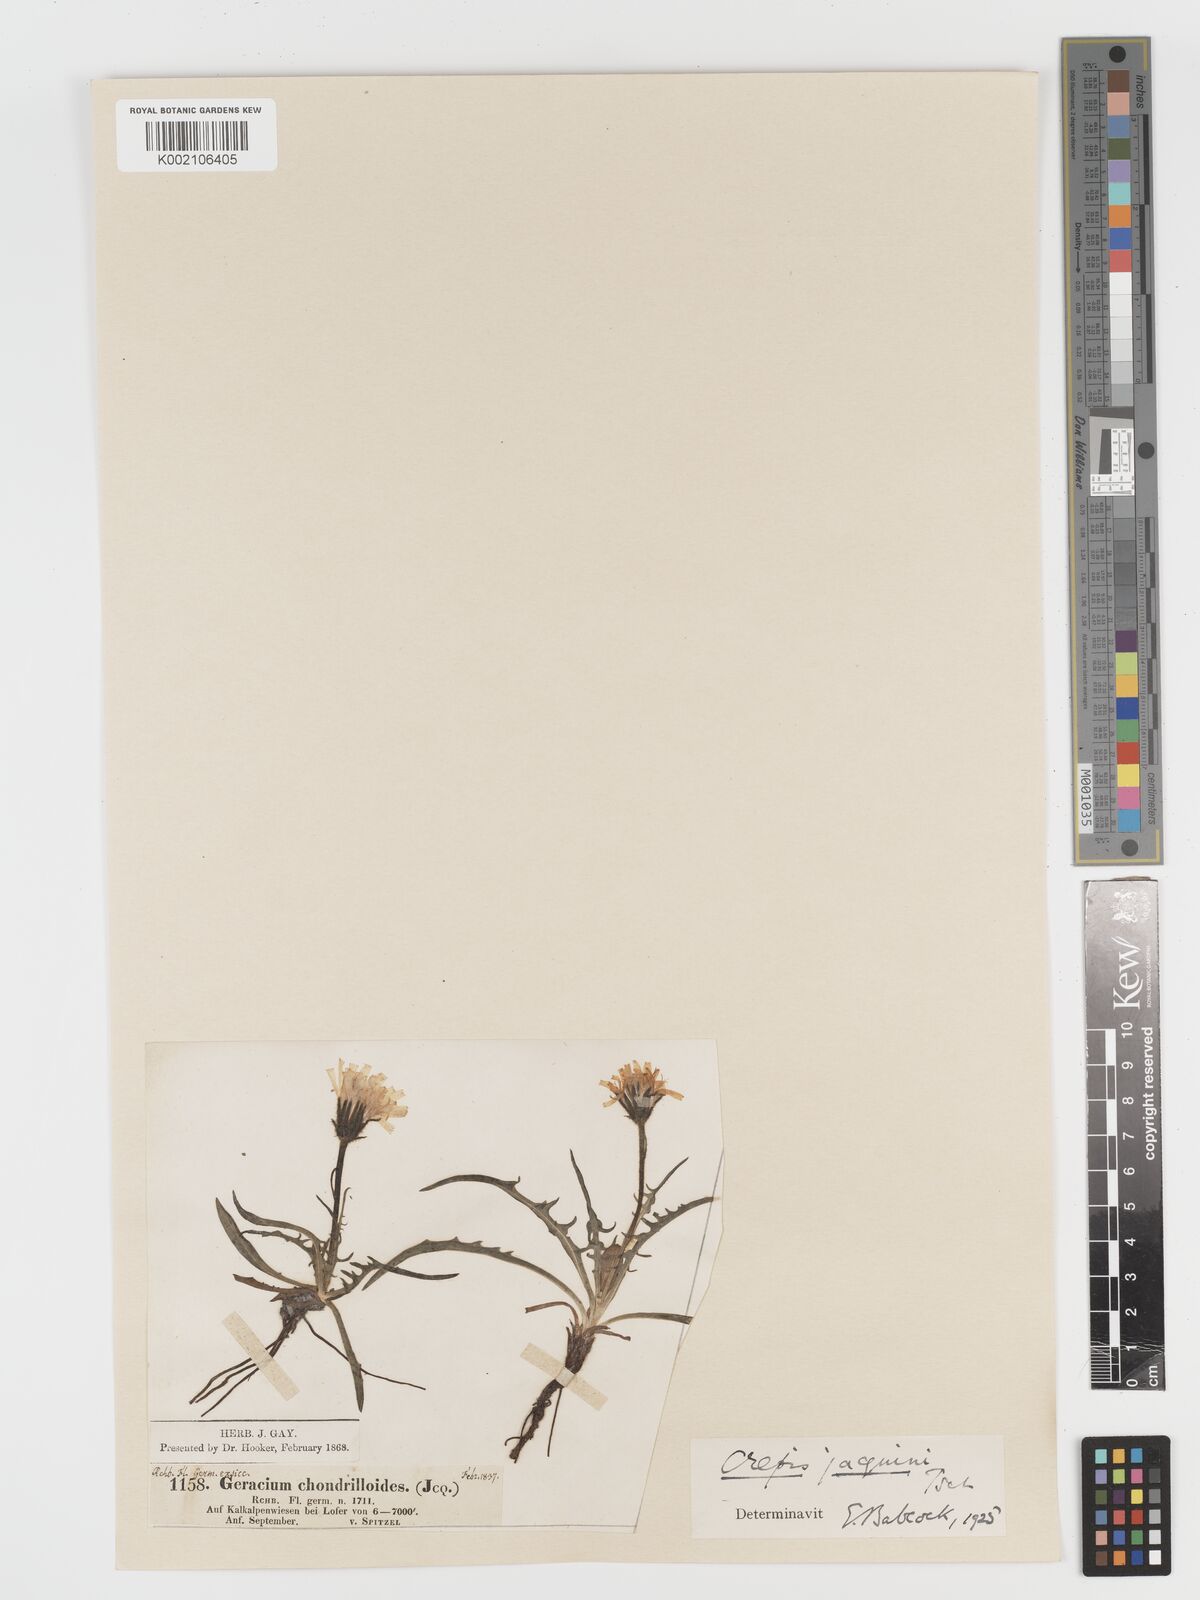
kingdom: Plantae
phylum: Tracheophyta
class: Magnoliopsida
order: Asterales
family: Asteraceae
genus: Crepis
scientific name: Crepis jacquinii
